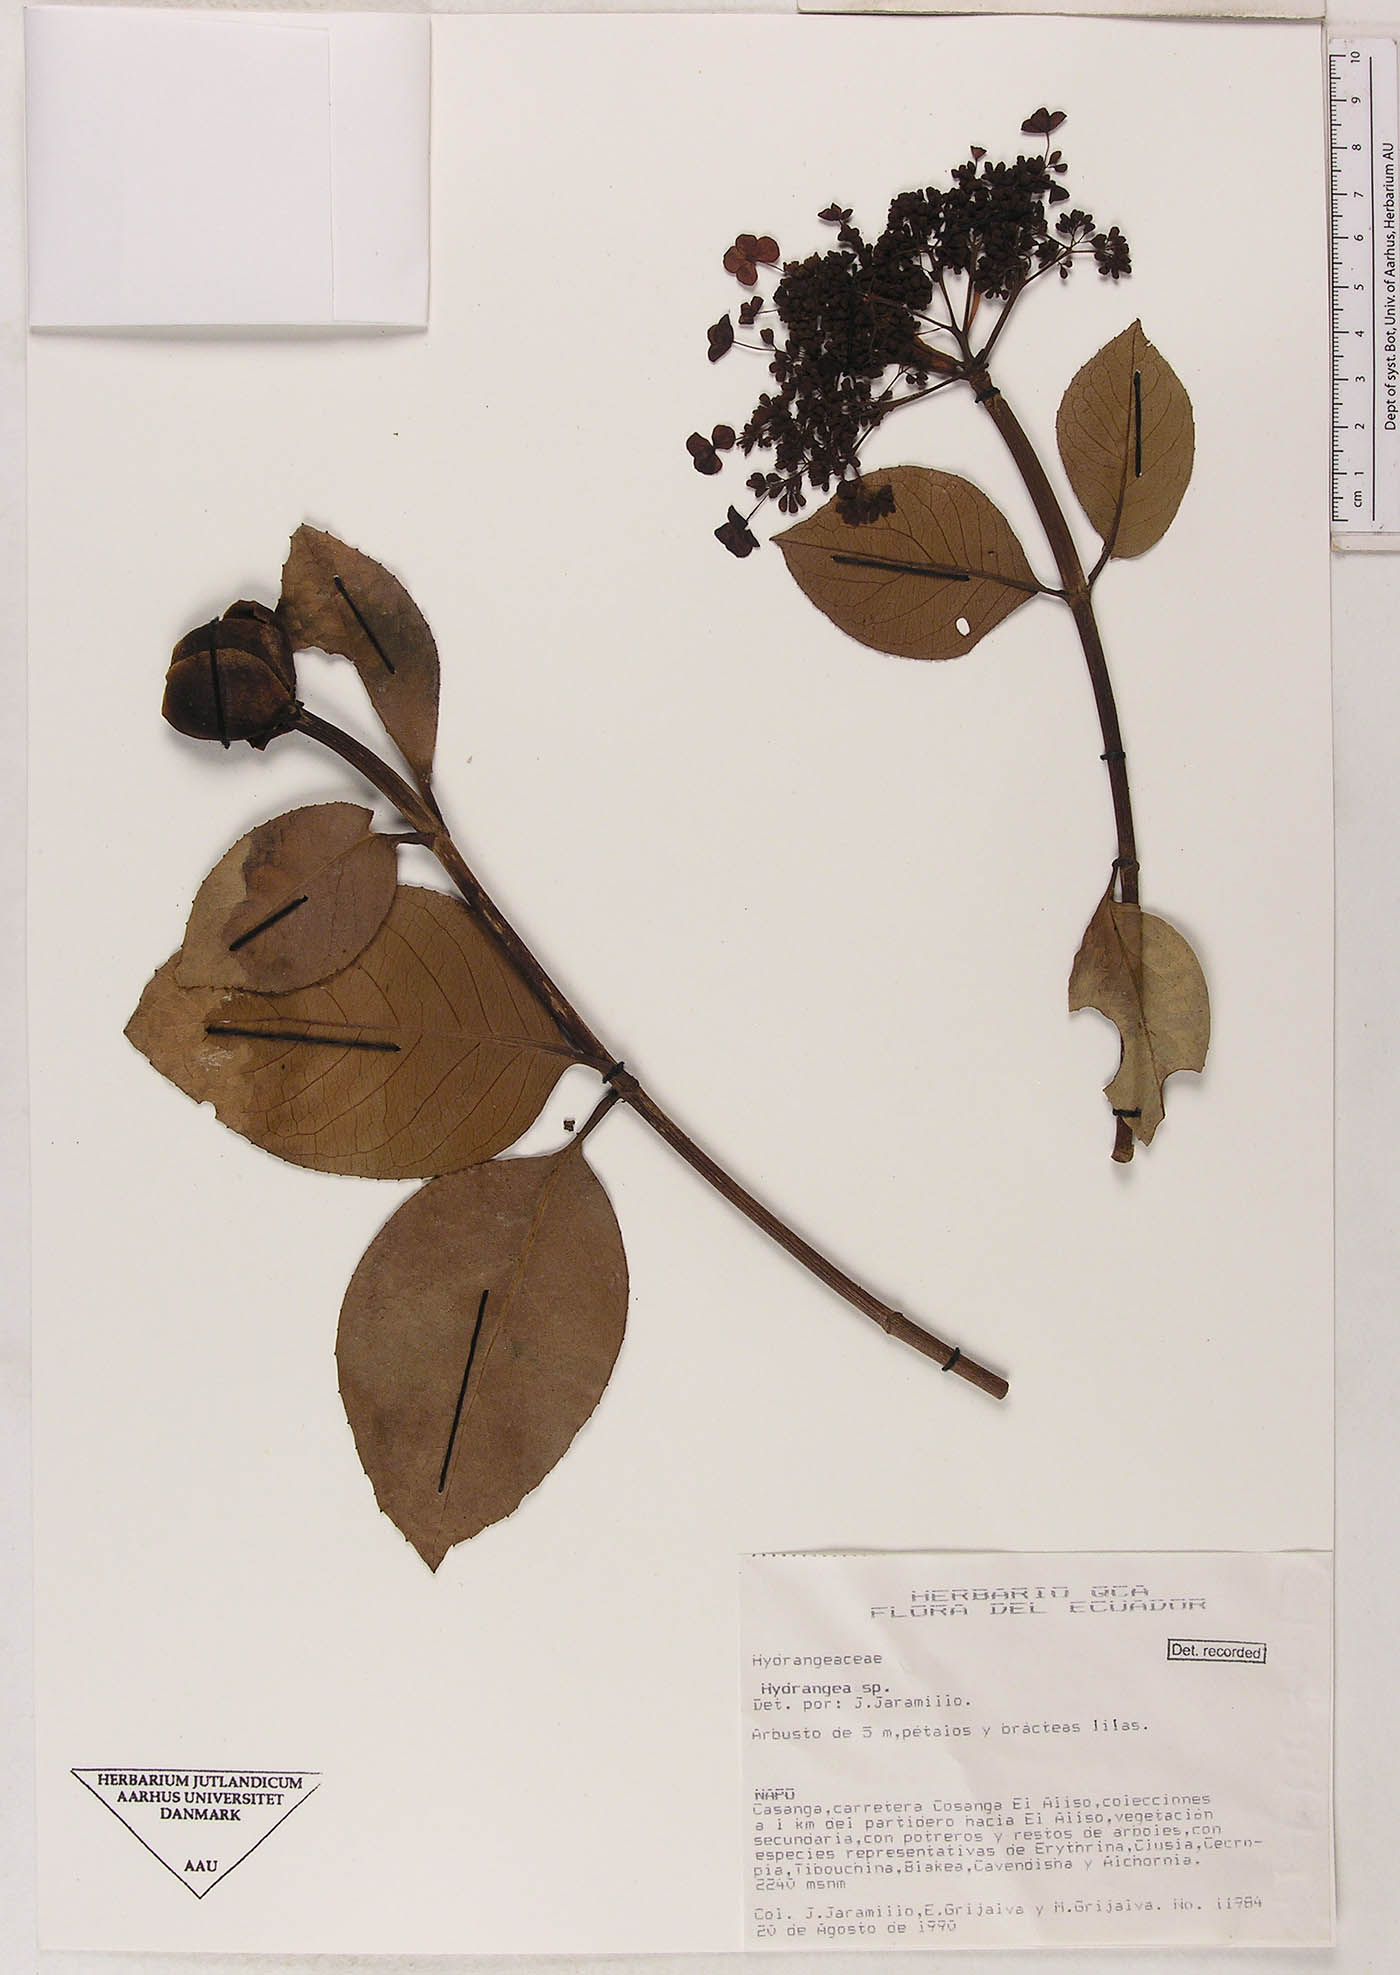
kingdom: Plantae
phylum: Tracheophyta
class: Magnoliopsida
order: Cornales
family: Hydrangeaceae
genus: Hydrangea
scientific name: Hydrangea
